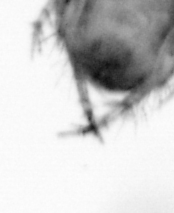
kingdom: Animalia
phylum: Annelida
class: Polychaeta
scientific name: Polychaeta
